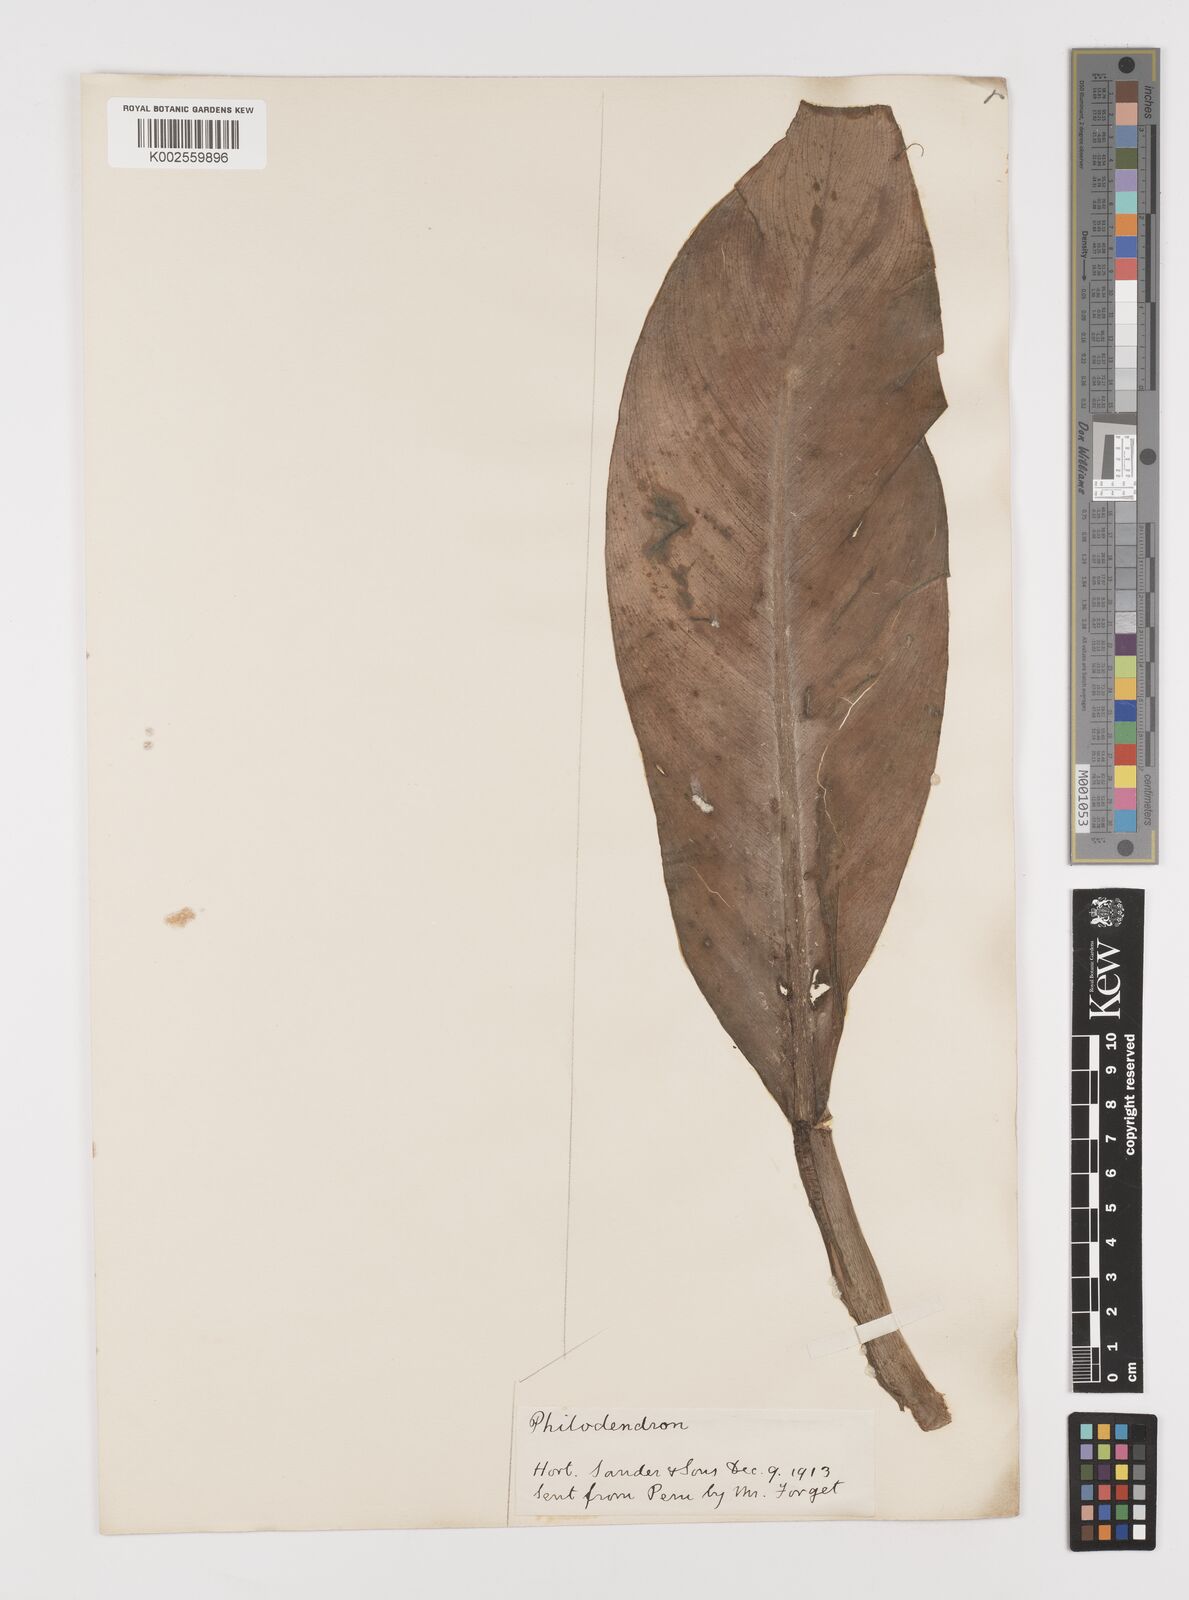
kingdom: Plantae
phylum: Tracheophyta
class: Liliopsida
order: Alismatales
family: Araceae
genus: Philodendron
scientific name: Philodendron
